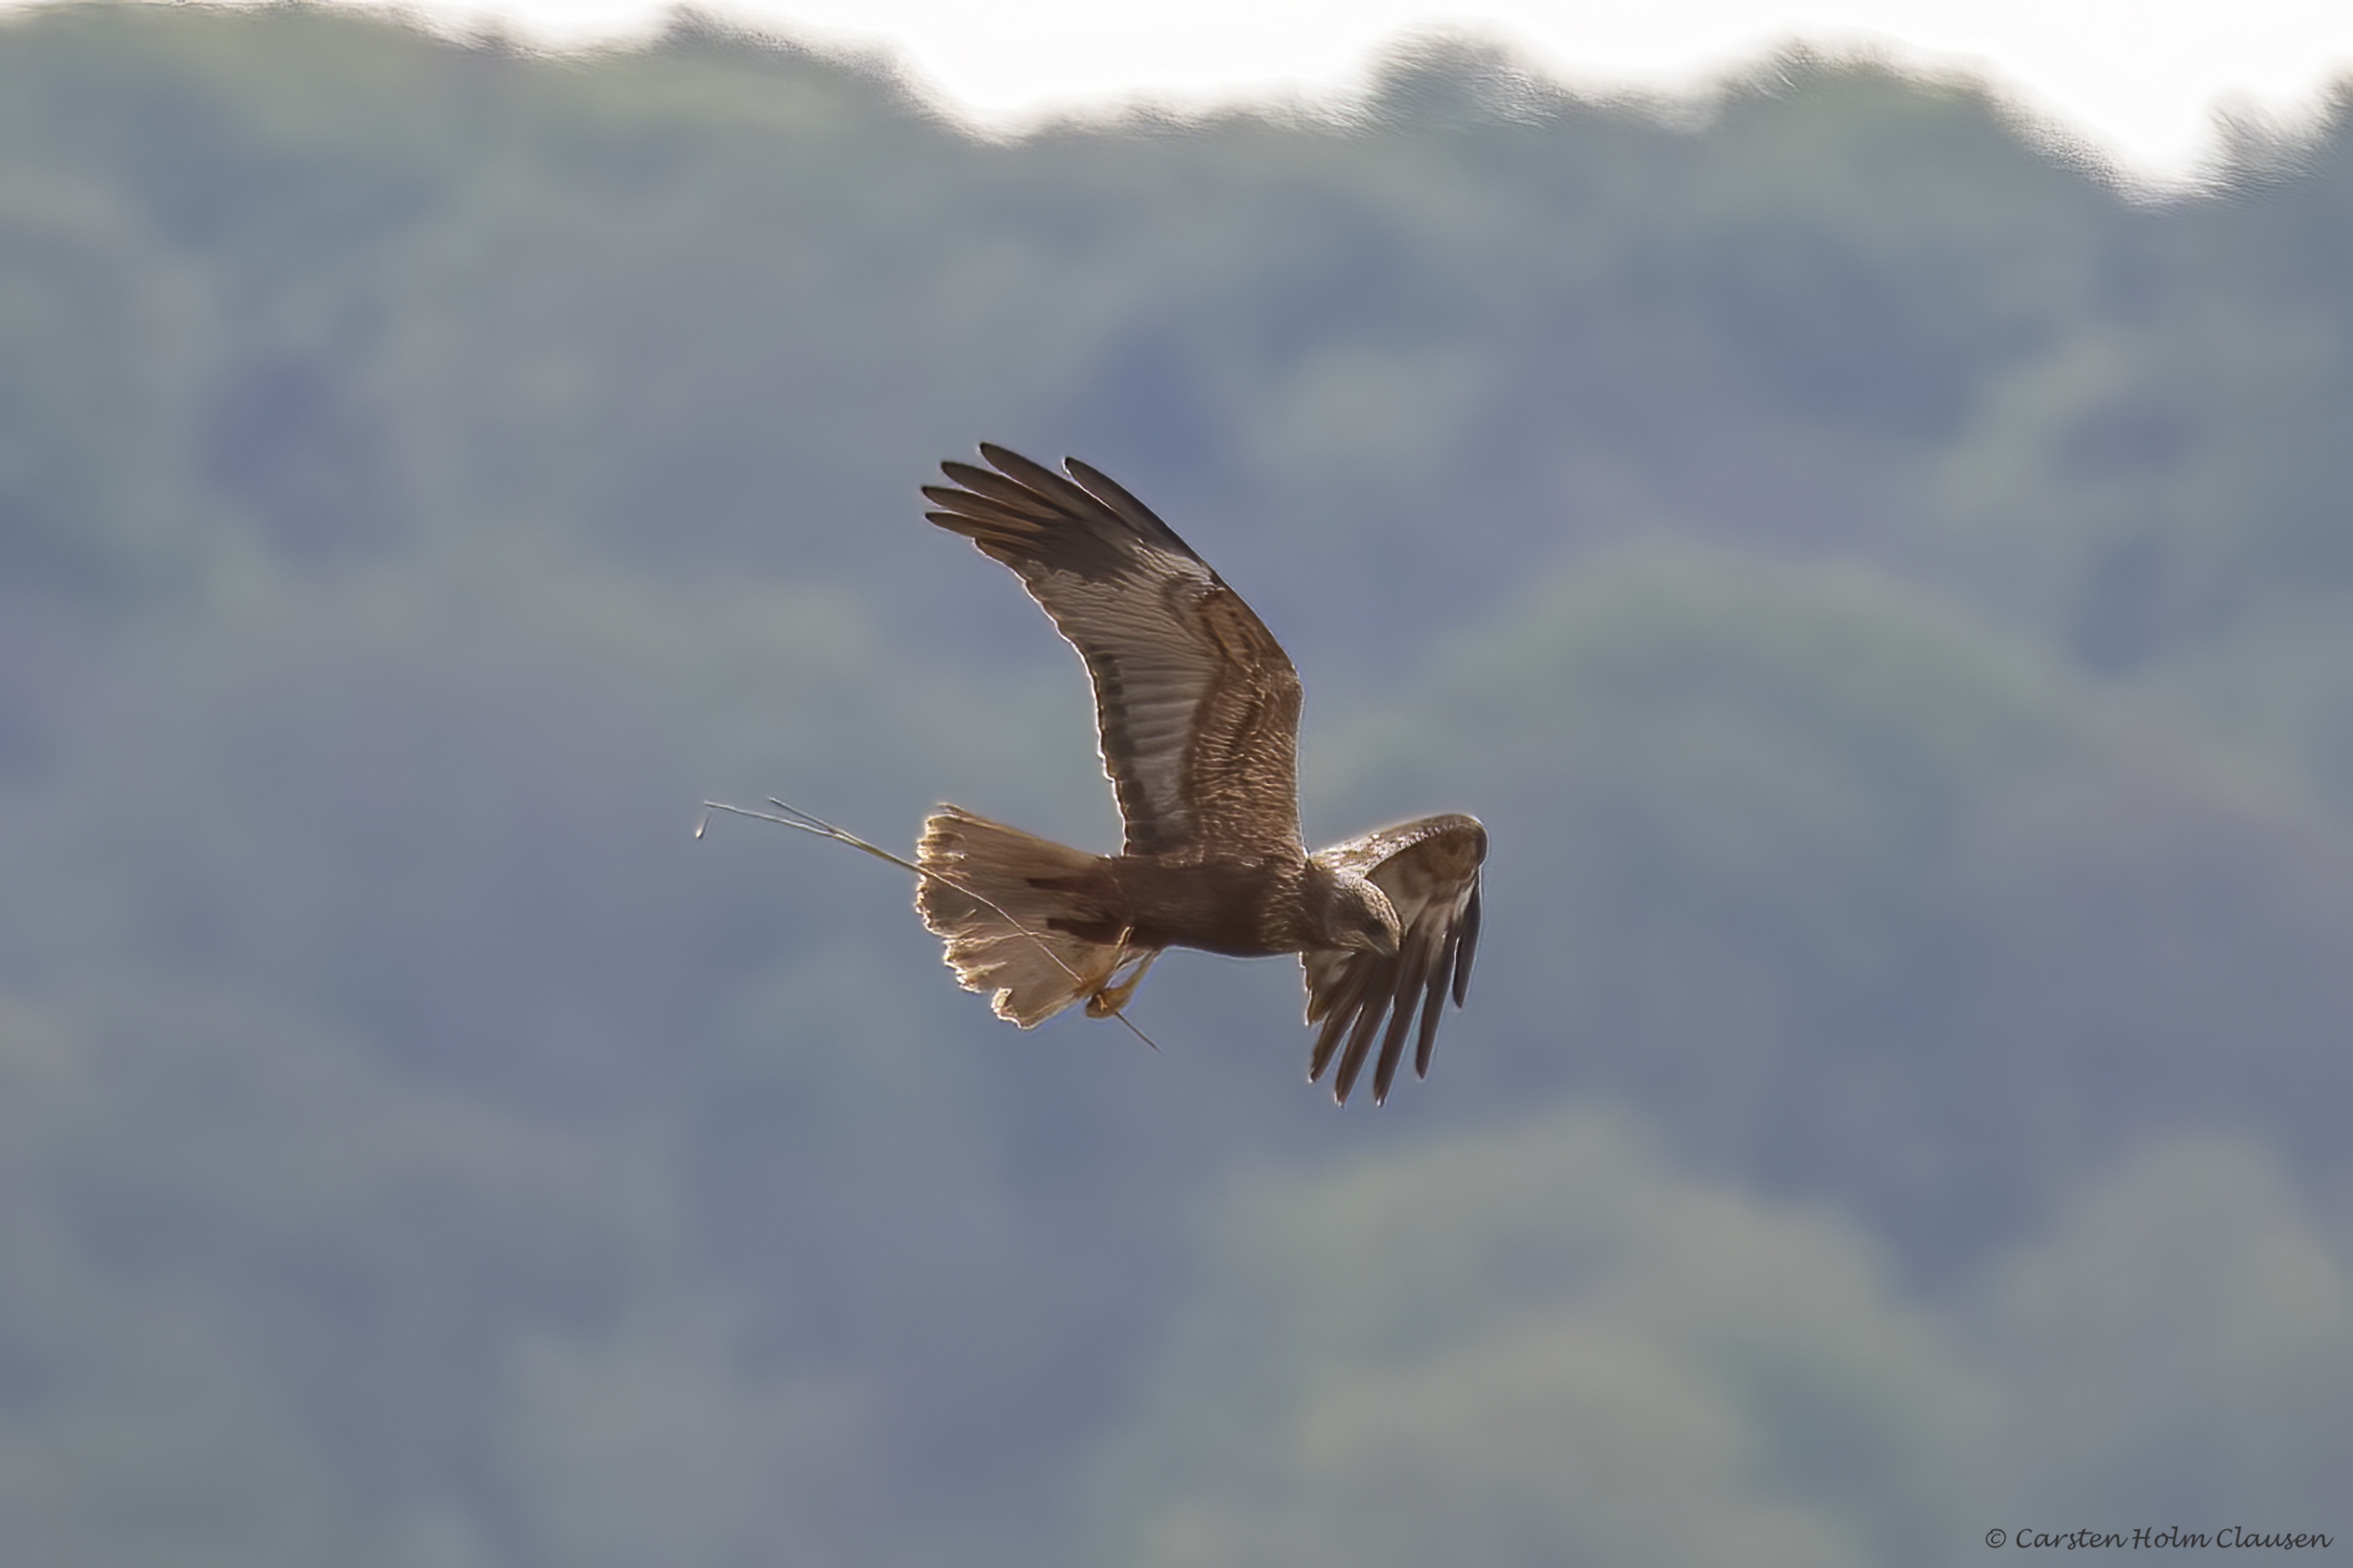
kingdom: Animalia
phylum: Chordata
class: Aves
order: Accipitriformes
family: Accipitridae
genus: Circus
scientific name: Circus aeruginosus
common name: Rørhøg
